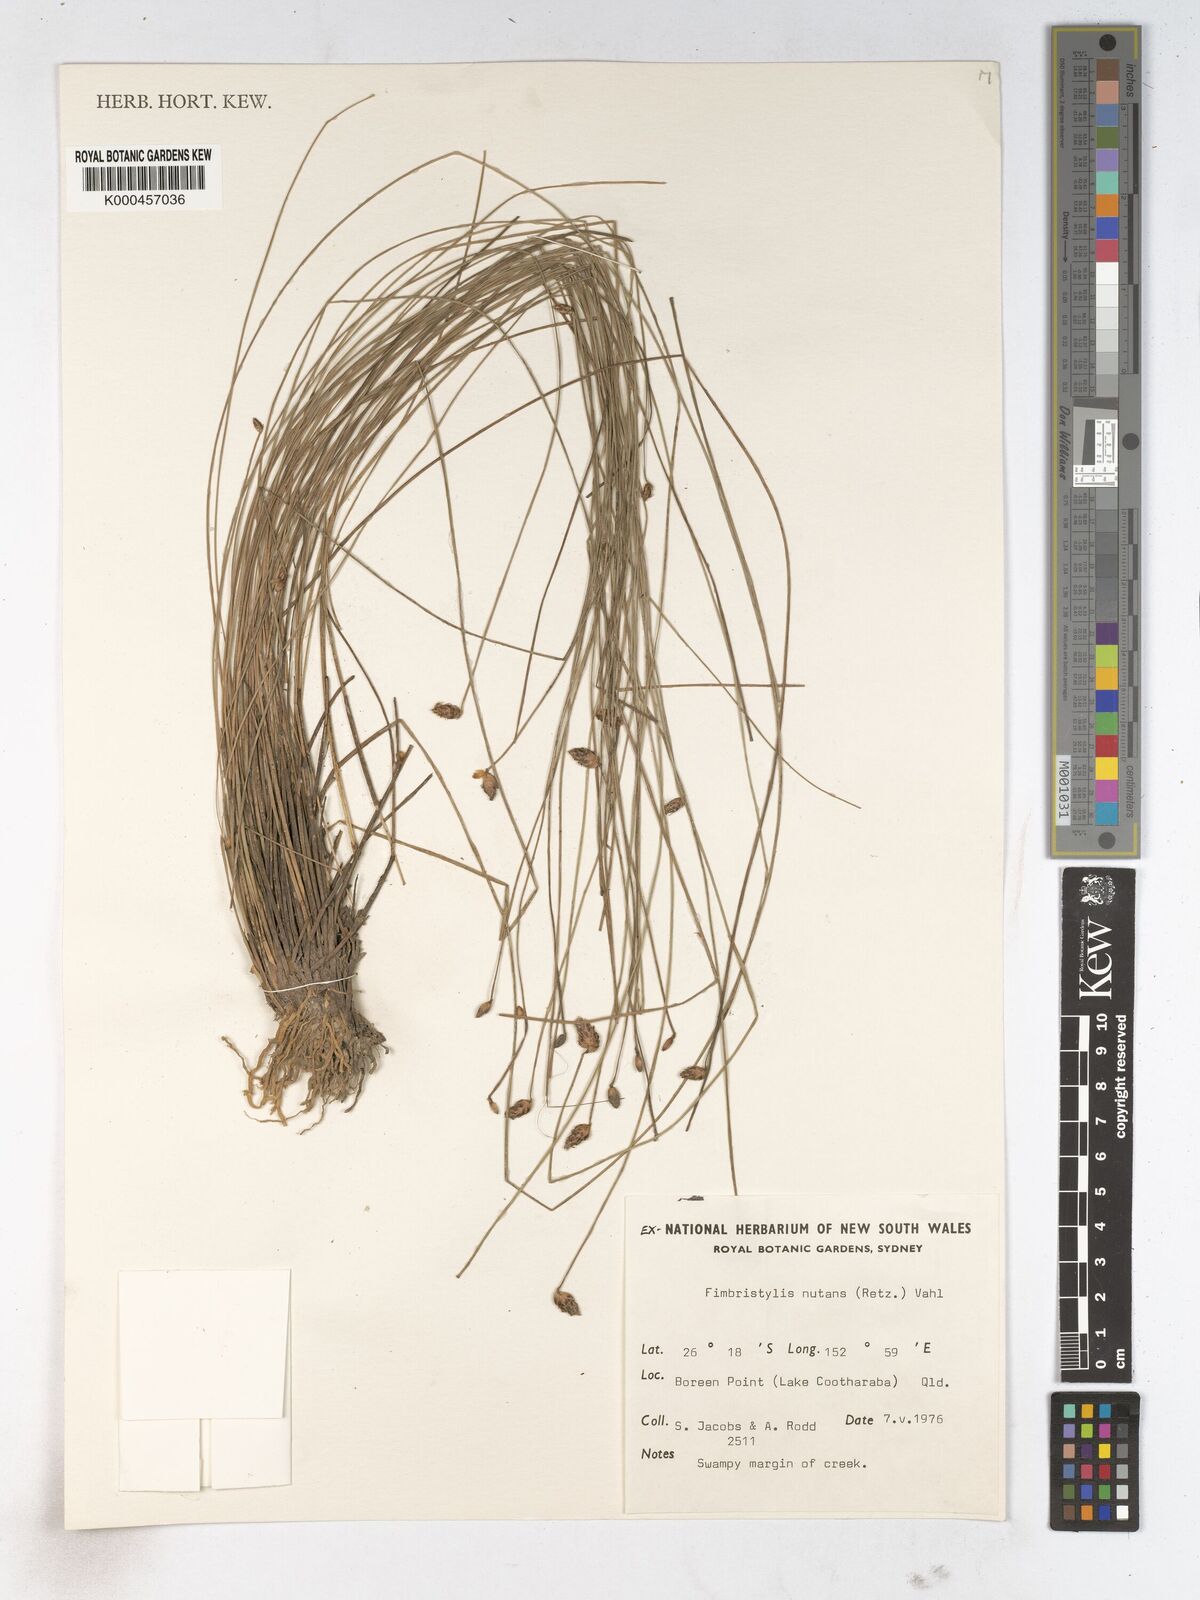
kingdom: Plantae
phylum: Tracheophyta
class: Liliopsida
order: Poales
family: Cyperaceae
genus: Fimbristylis
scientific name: Fimbristylis nutans
